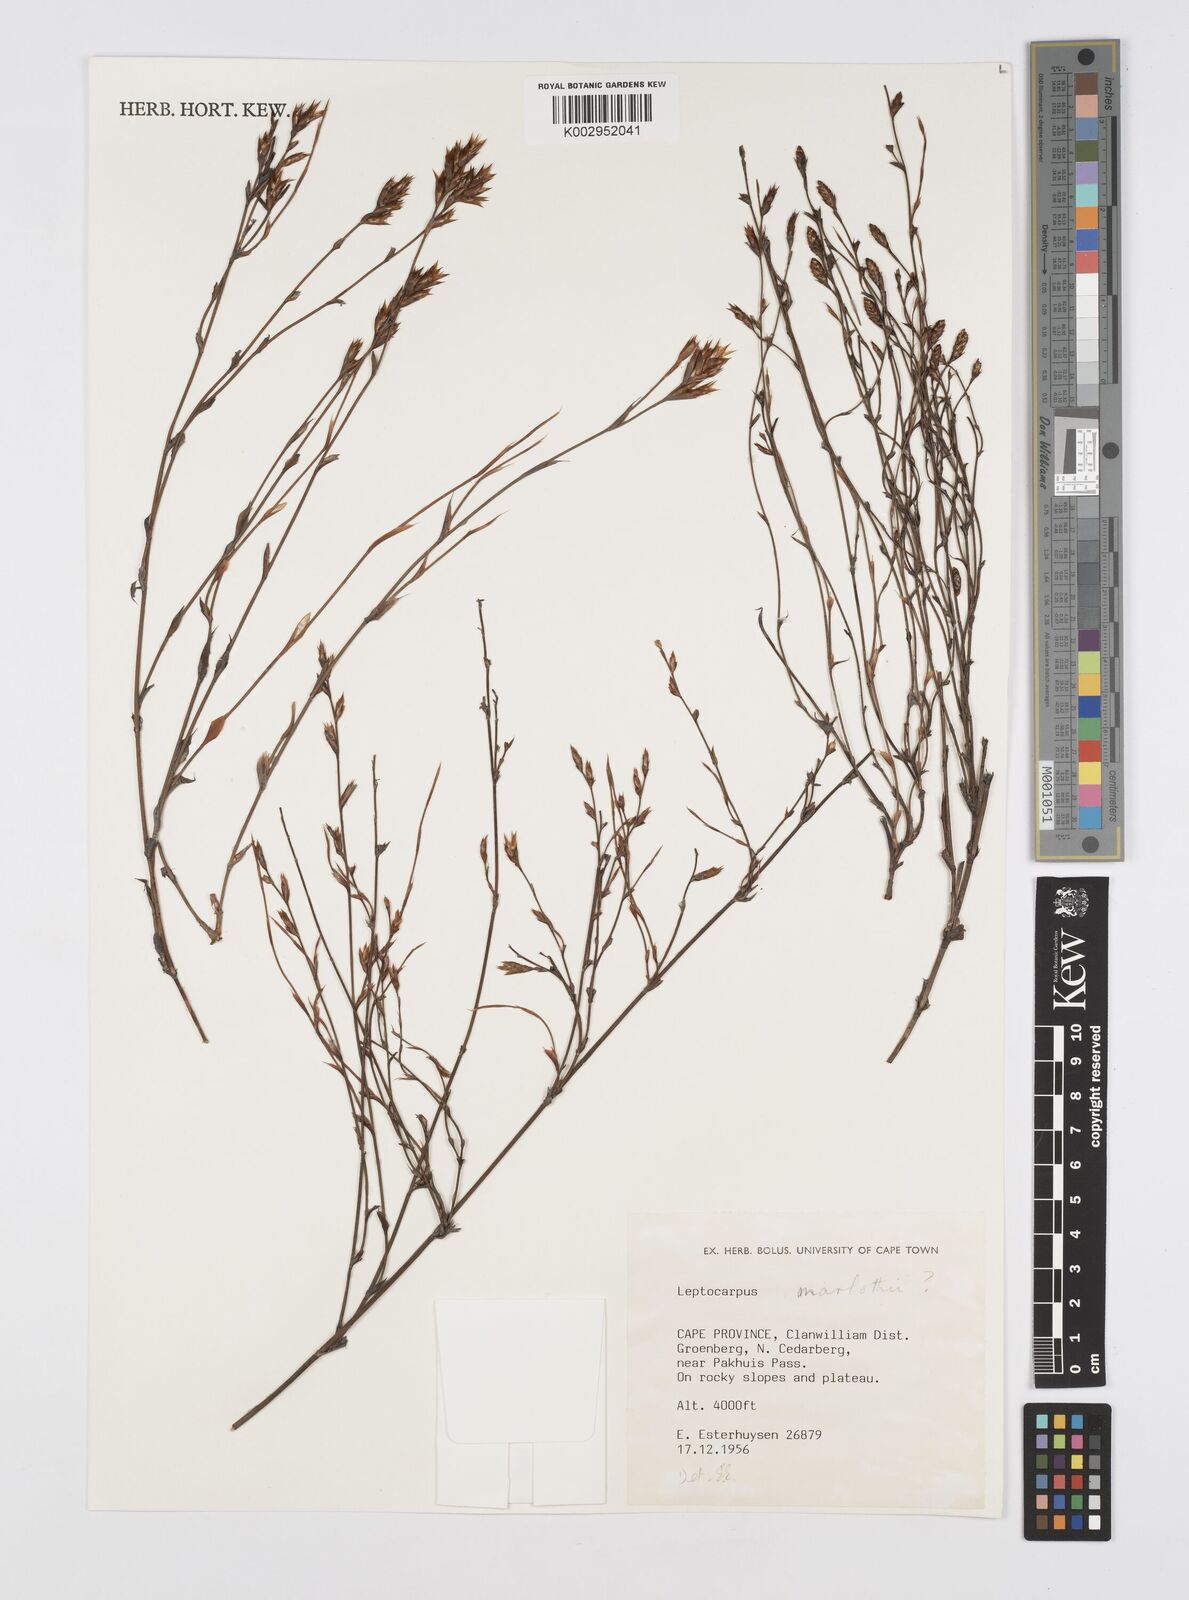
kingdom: Plantae
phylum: Tracheophyta
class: Liliopsida
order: Poales
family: Restionaceae
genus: Restio
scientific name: Restio marlothii
